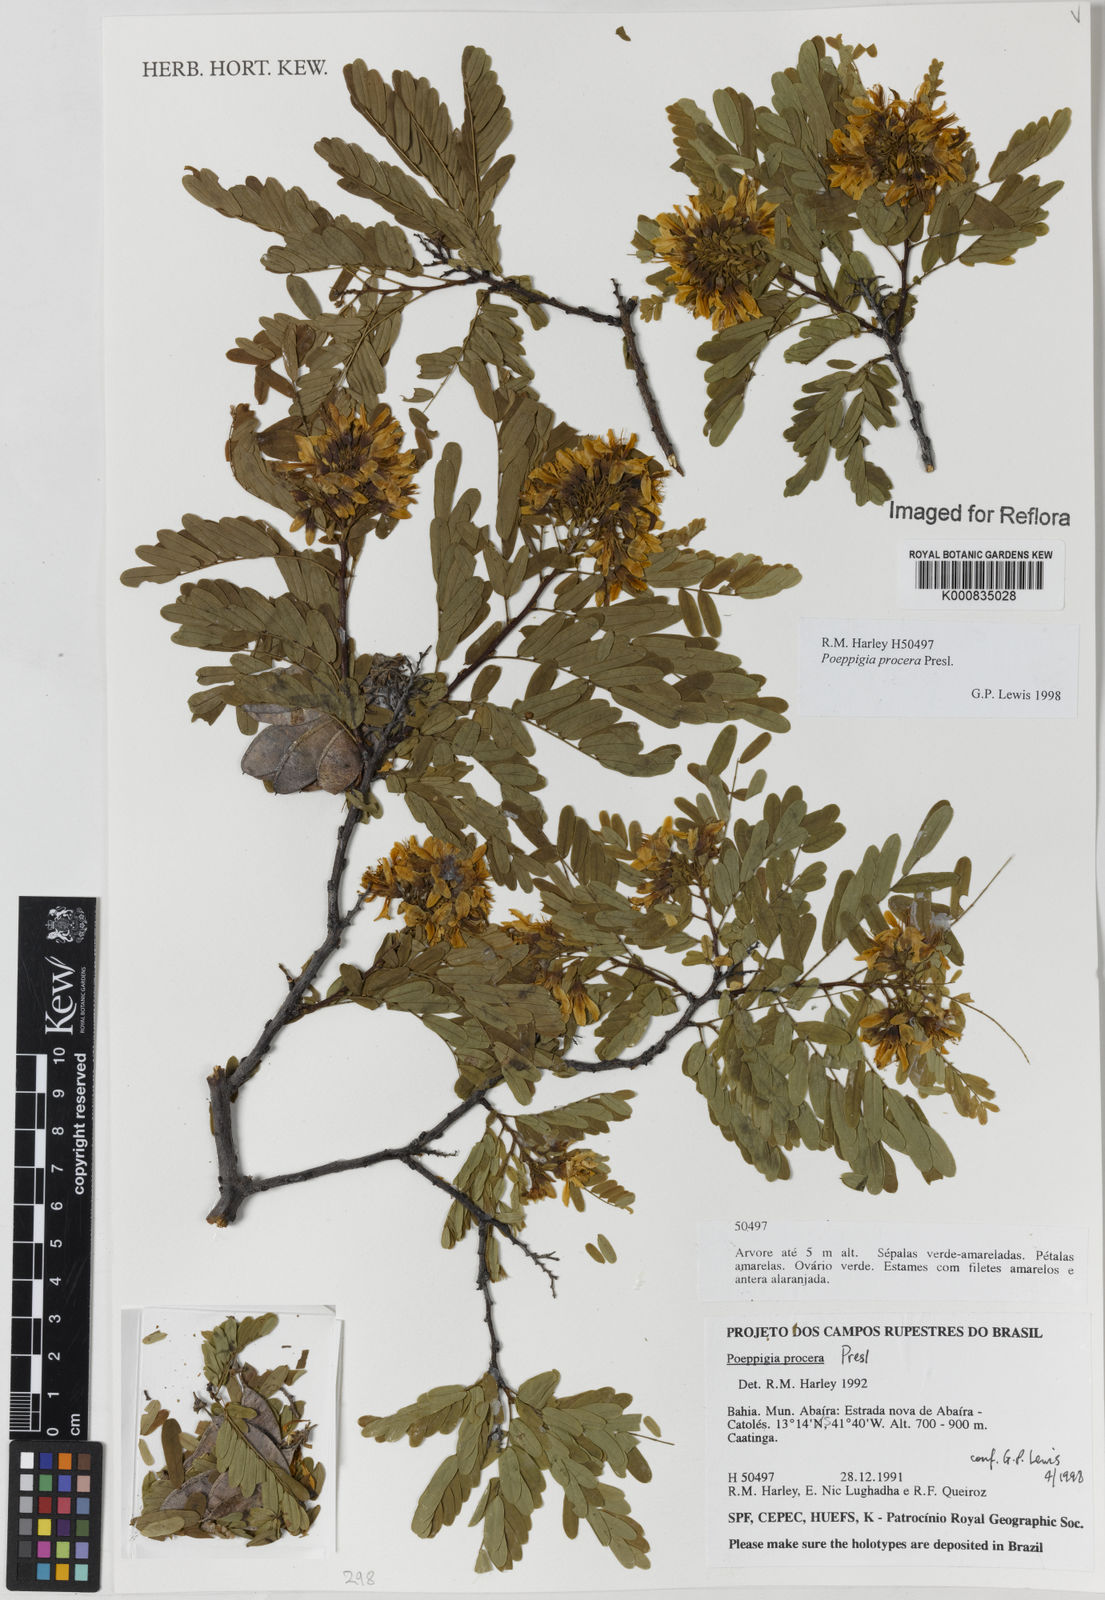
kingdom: Plantae
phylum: Tracheophyta
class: Magnoliopsida
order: Fabales
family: Fabaceae
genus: Poeppigia
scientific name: Poeppigia procera
